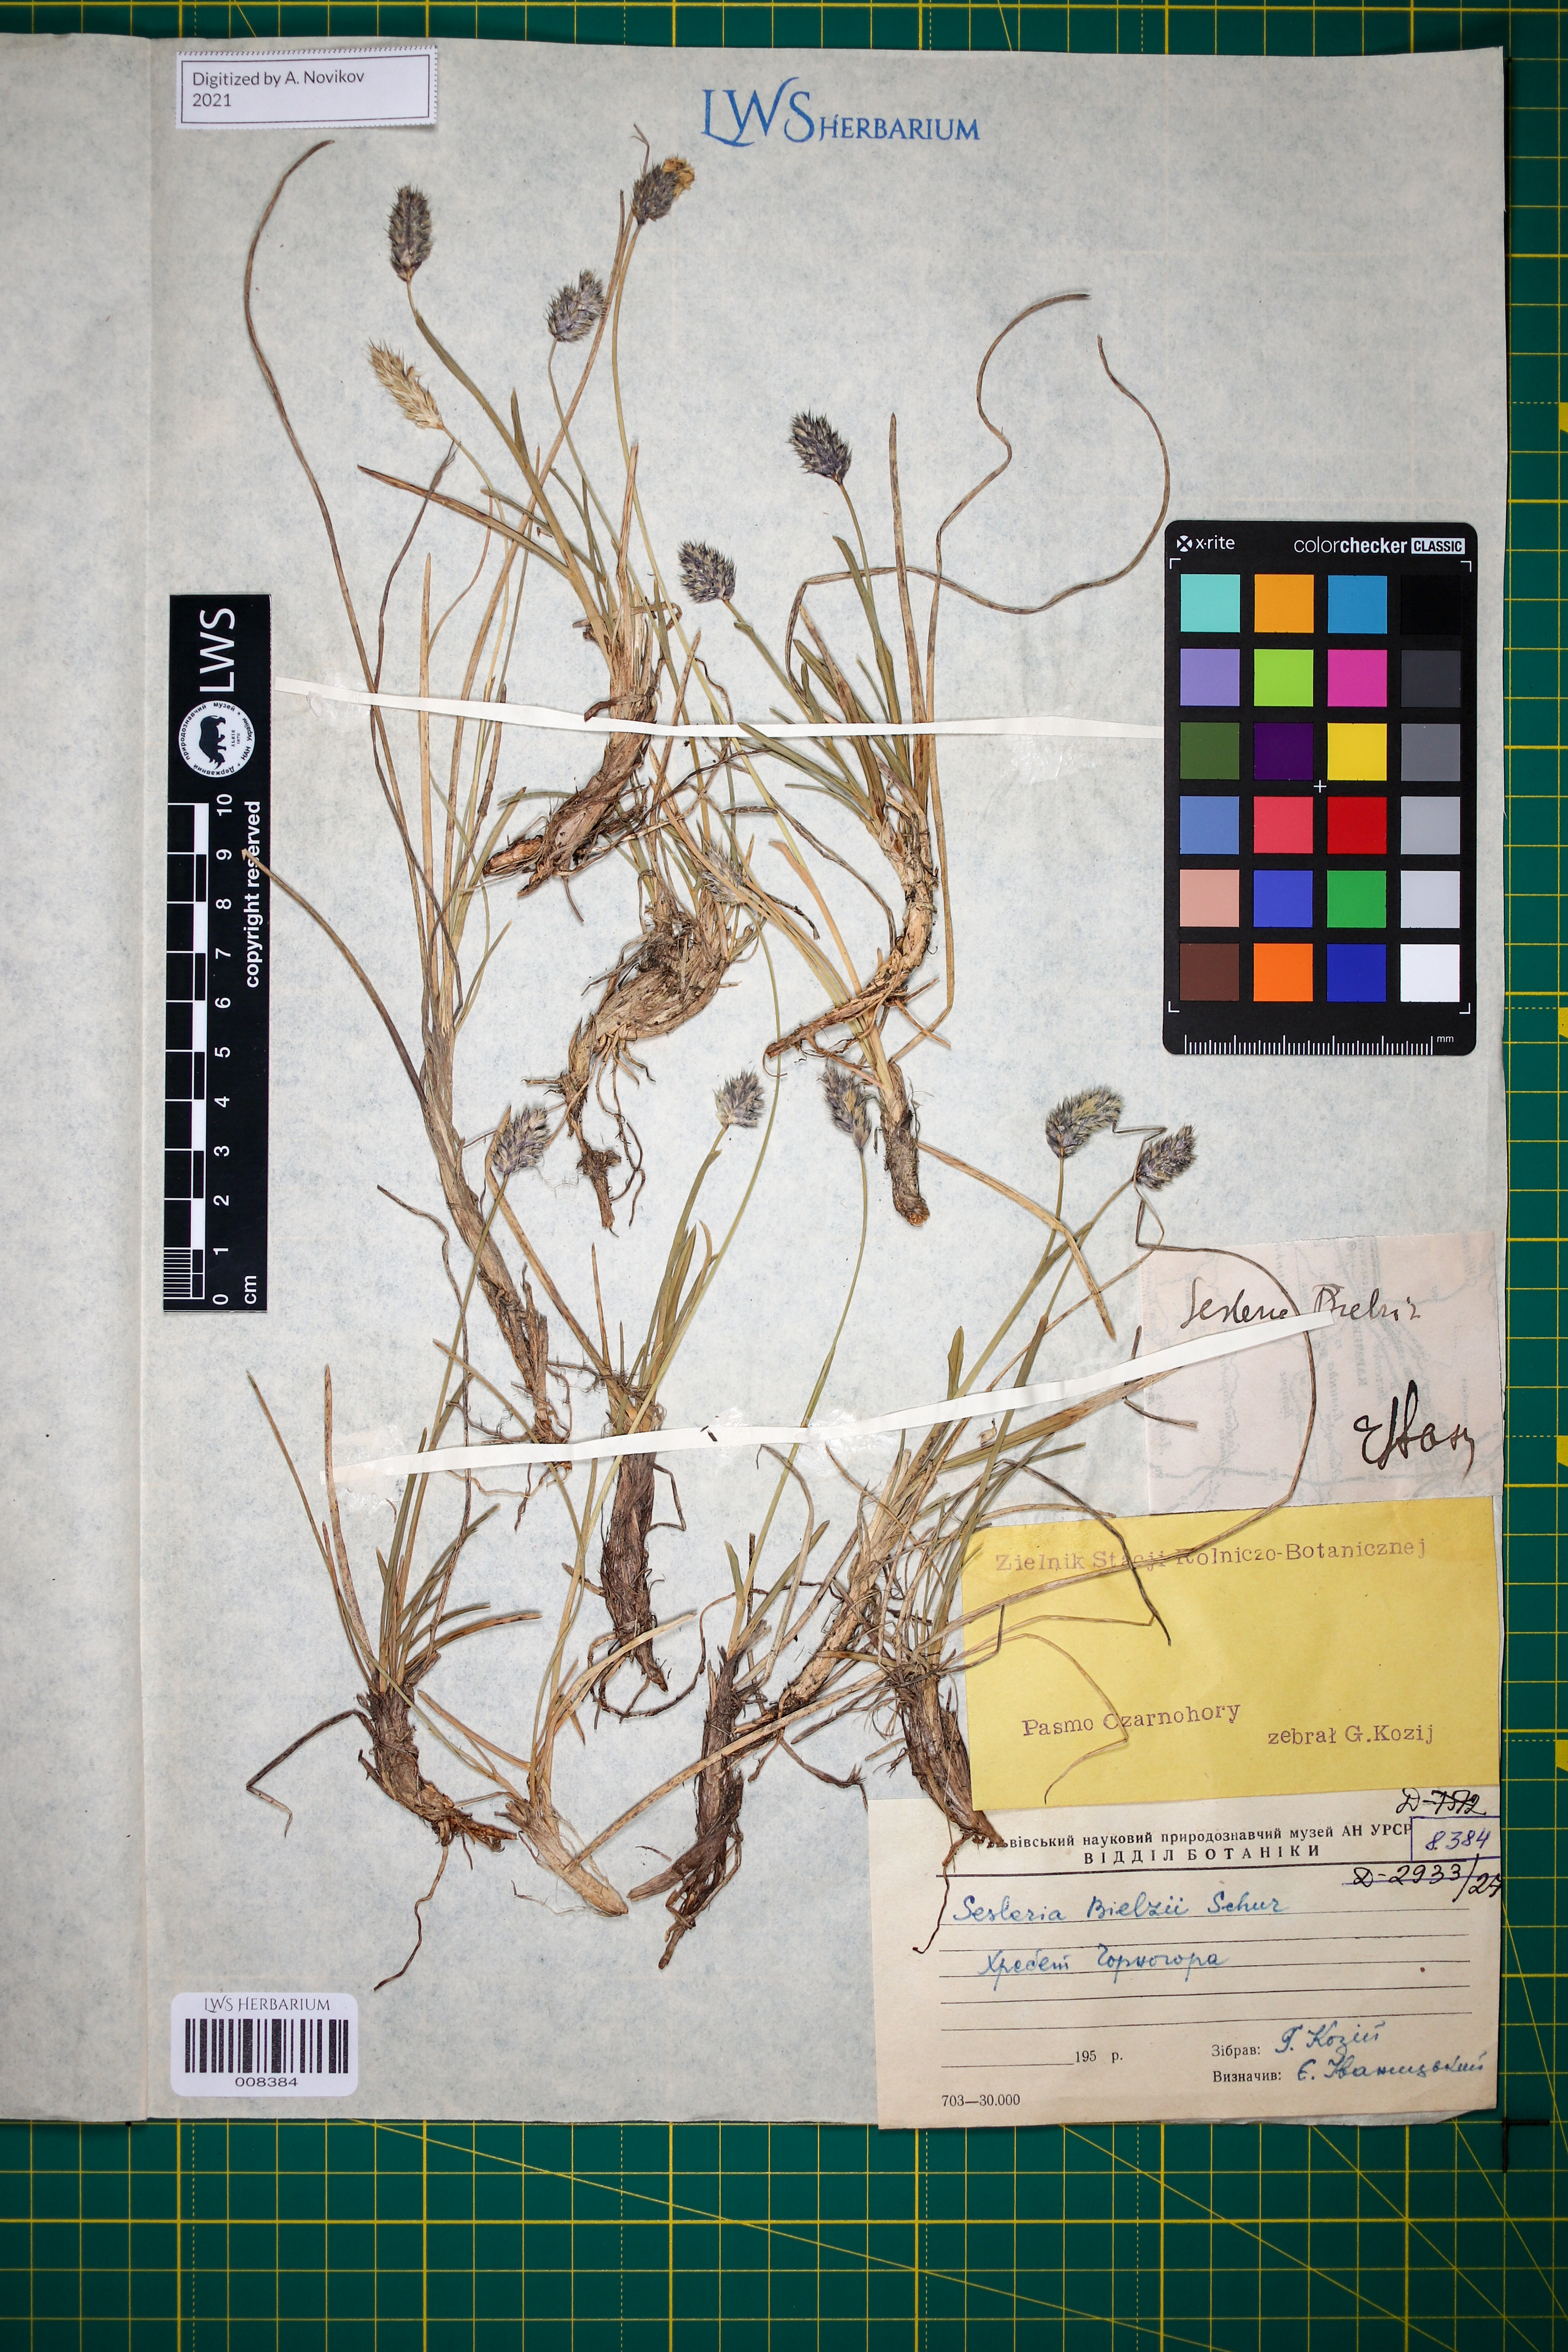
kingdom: Plantae
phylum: Tracheophyta
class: Liliopsida
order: Poales
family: Poaceae
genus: Sesleria
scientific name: Sesleria bielzii
